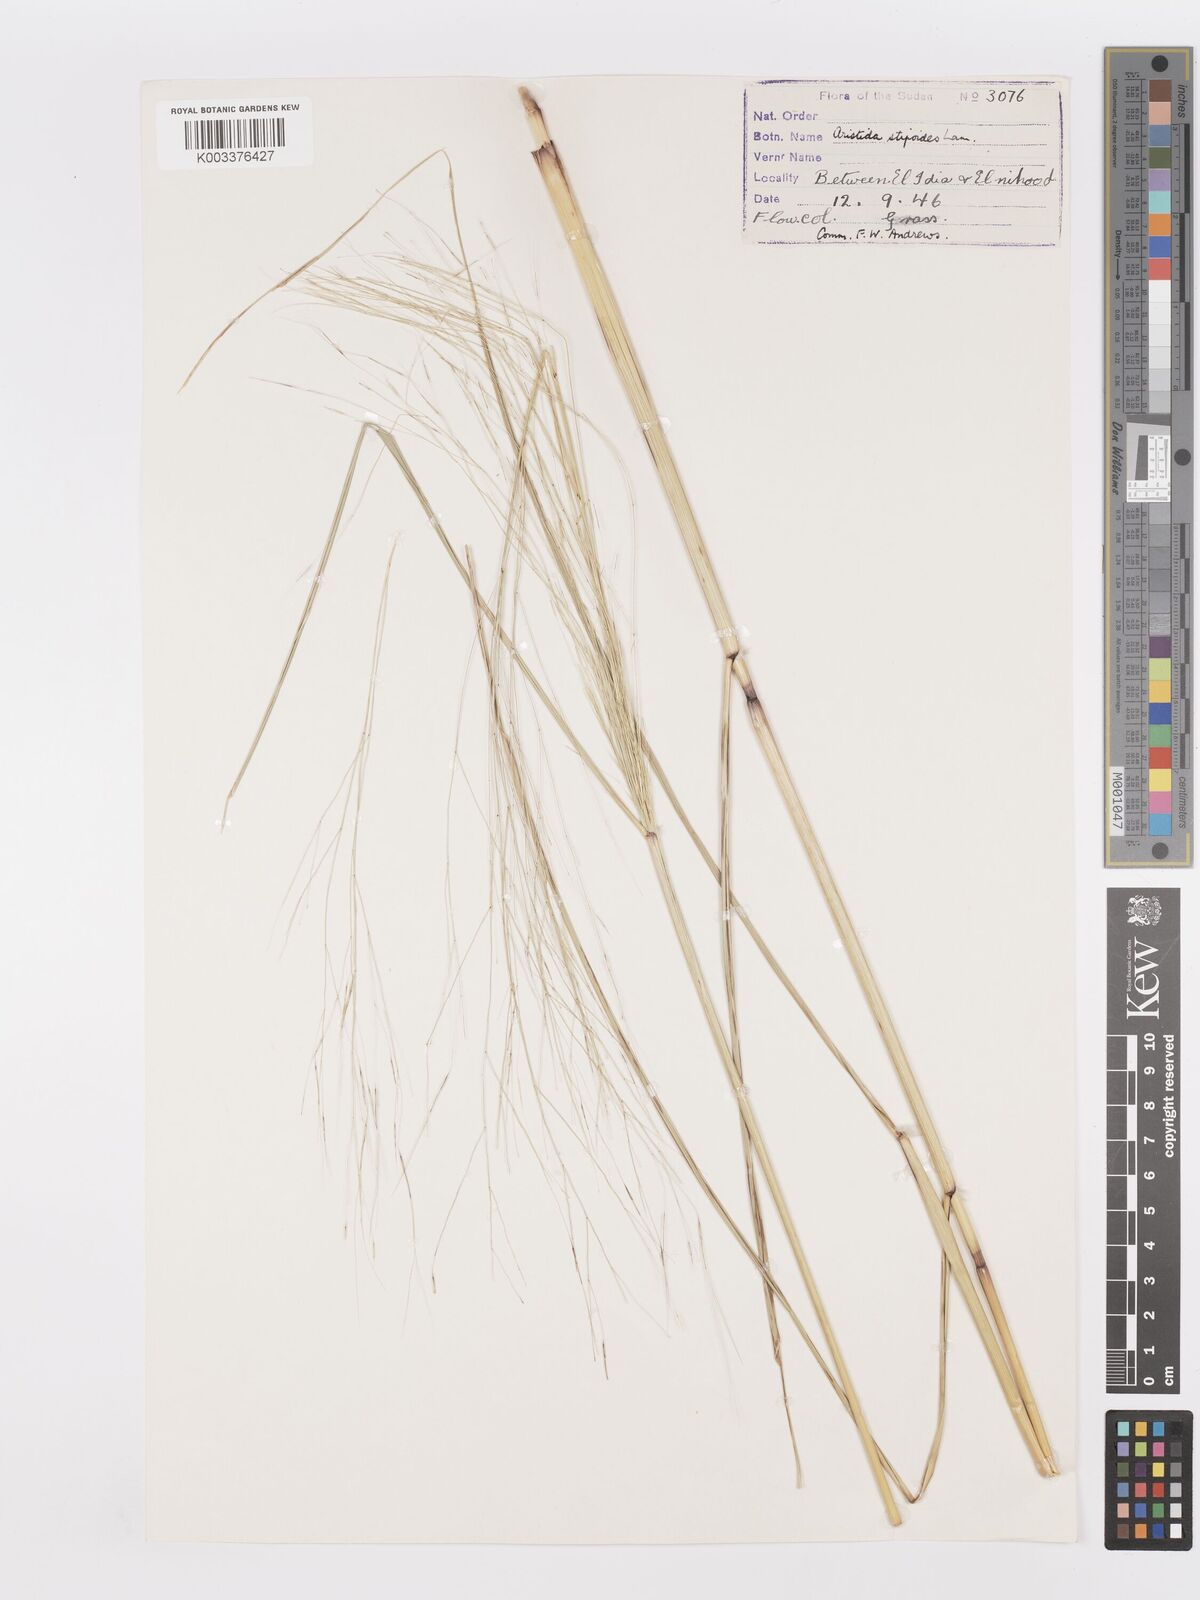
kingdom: Plantae
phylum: Tracheophyta
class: Liliopsida
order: Poales
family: Poaceae
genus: Aristida
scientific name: Aristida stipoides
